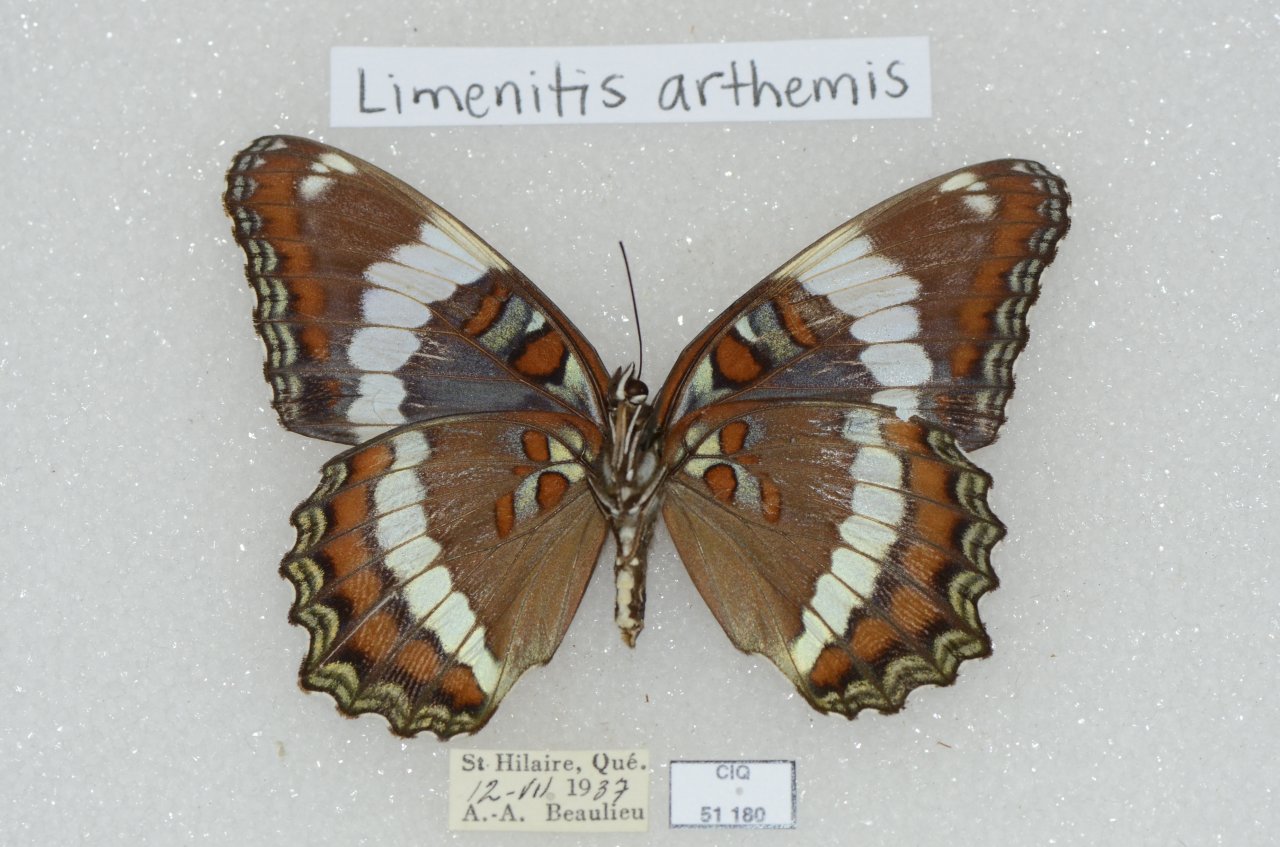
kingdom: Animalia
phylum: Arthropoda
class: Insecta
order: Lepidoptera
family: Nymphalidae
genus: Limenitis
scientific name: Limenitis arthemis
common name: Red-spotted Admiral
